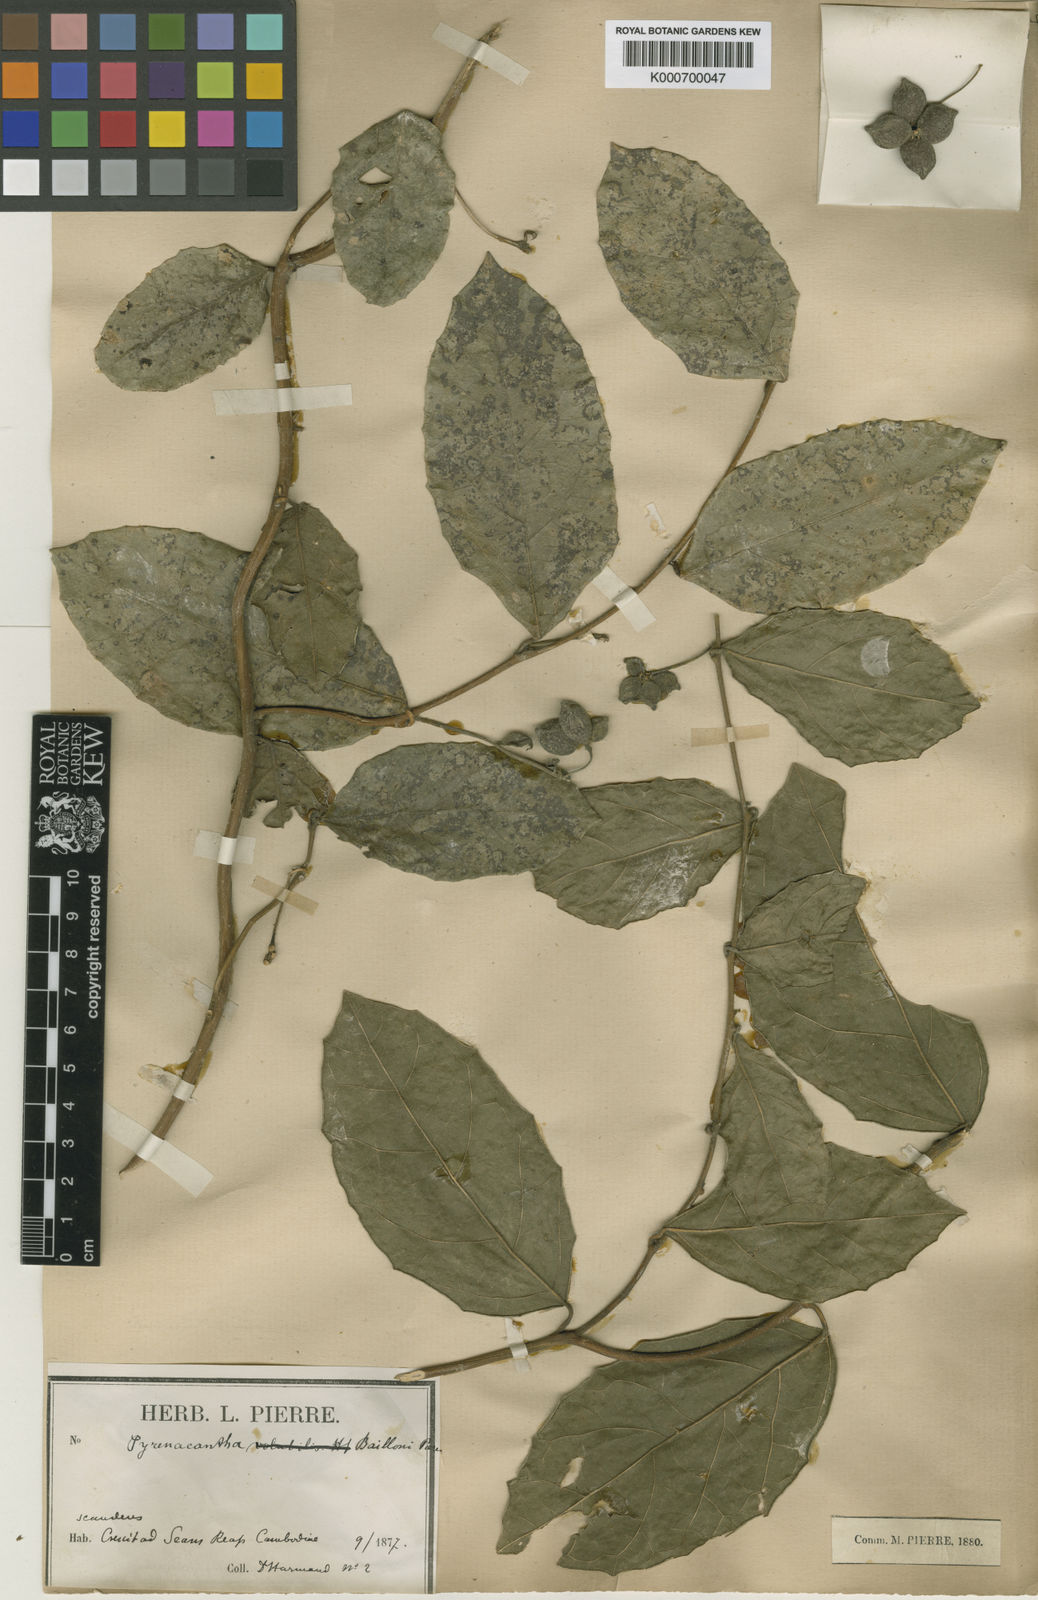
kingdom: Plantae
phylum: Tracheophyta
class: Magnoliopsida
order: Icacinales
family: Icacinaceae
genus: Pyrenacantha
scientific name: Pyrenacantha
